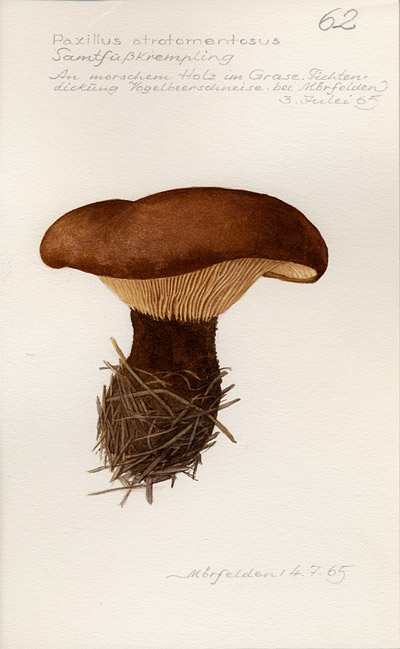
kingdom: Fungi
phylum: Basidiomycota
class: Agaricomycetes
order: Boletales
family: Tapinellaceae
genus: Tapinella
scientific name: Tapinella atrotomentosa
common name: Velvet rollrim
